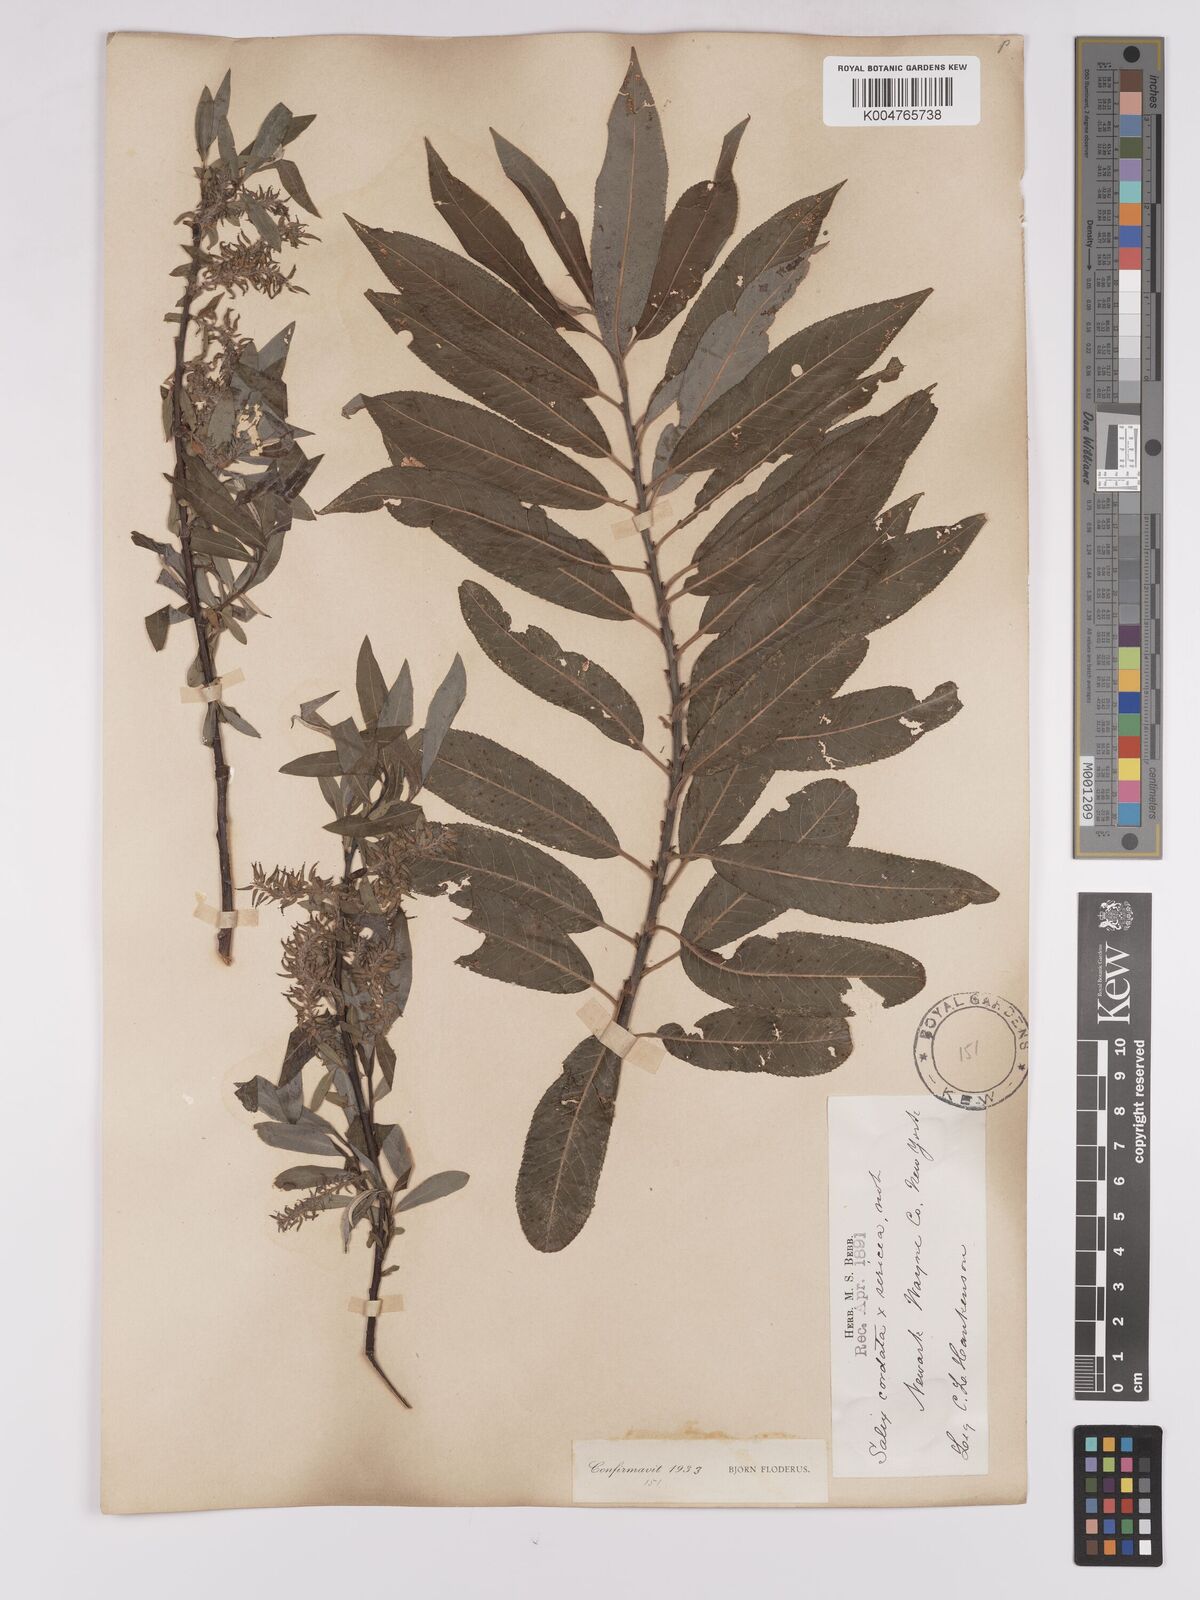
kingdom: Plantae
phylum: Tracheophyta
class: Magnoliopsida
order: Malpighiales
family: Salicaceae
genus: Salix
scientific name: Salix cordata
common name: Heart-leaf willow
